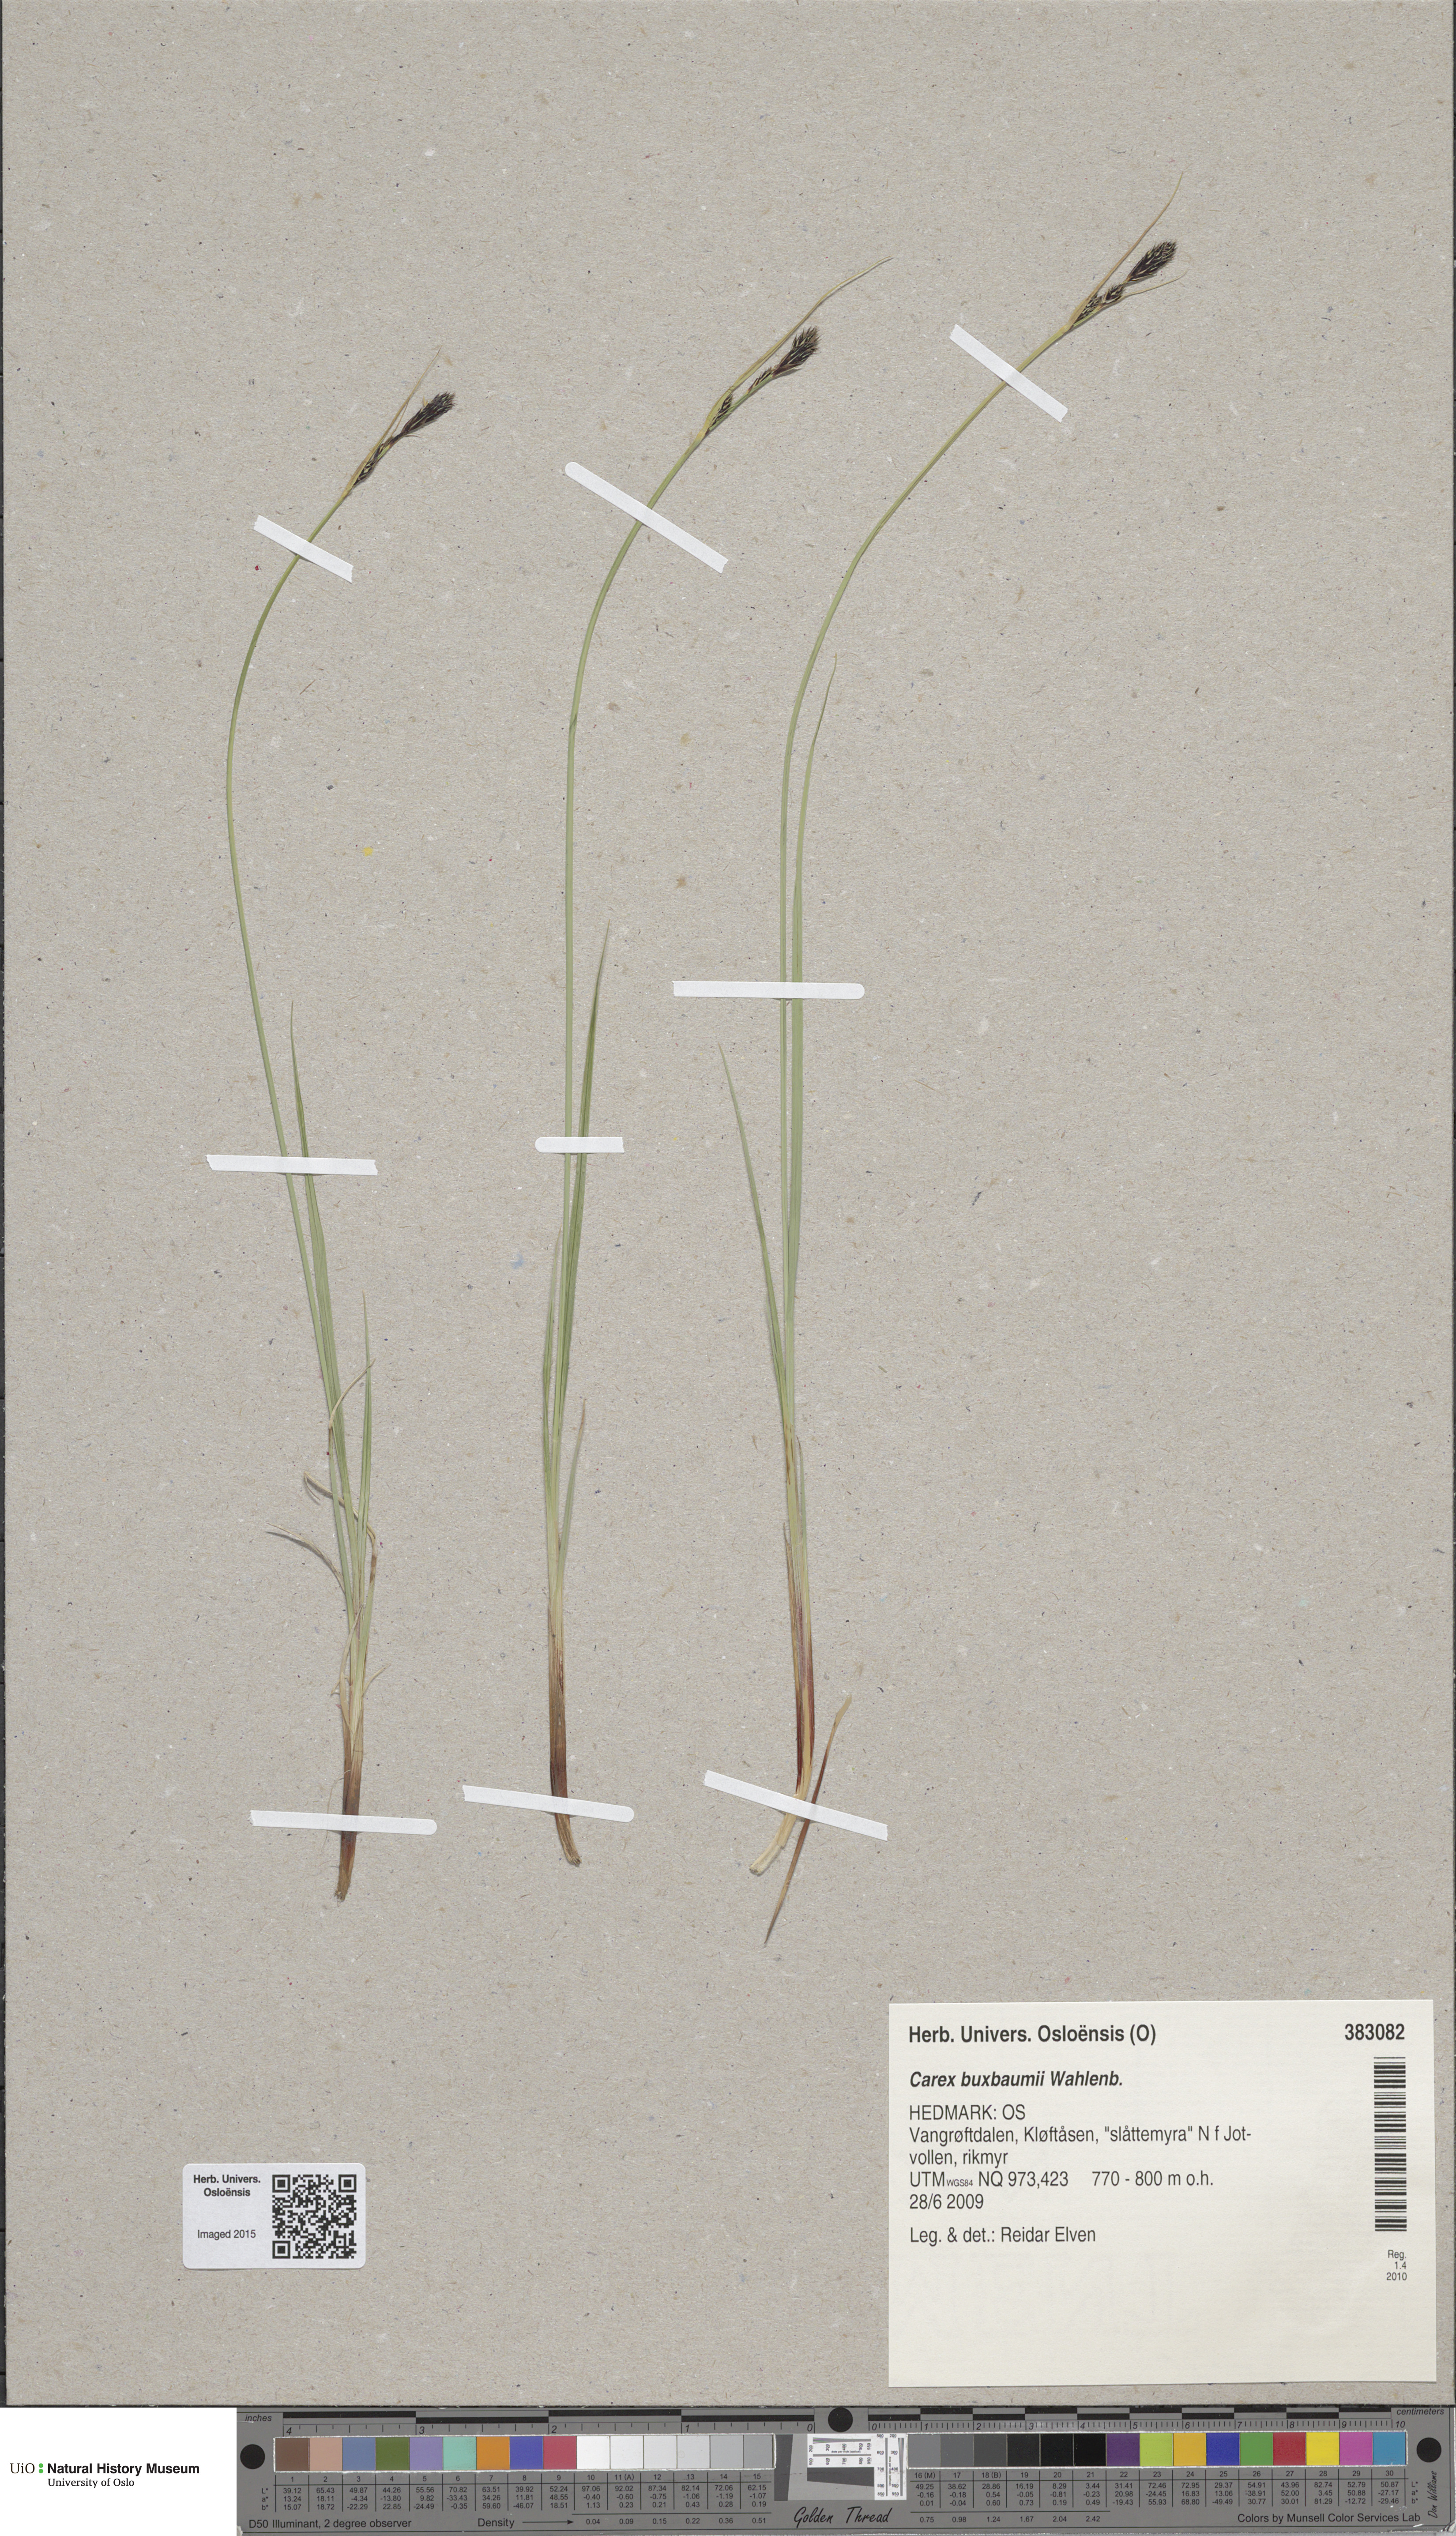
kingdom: Plantae
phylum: Tracheophyta
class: Liliopsida
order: Poales
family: Cyperaceae
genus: Carex
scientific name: Carex buxbaumii
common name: Club sedge
